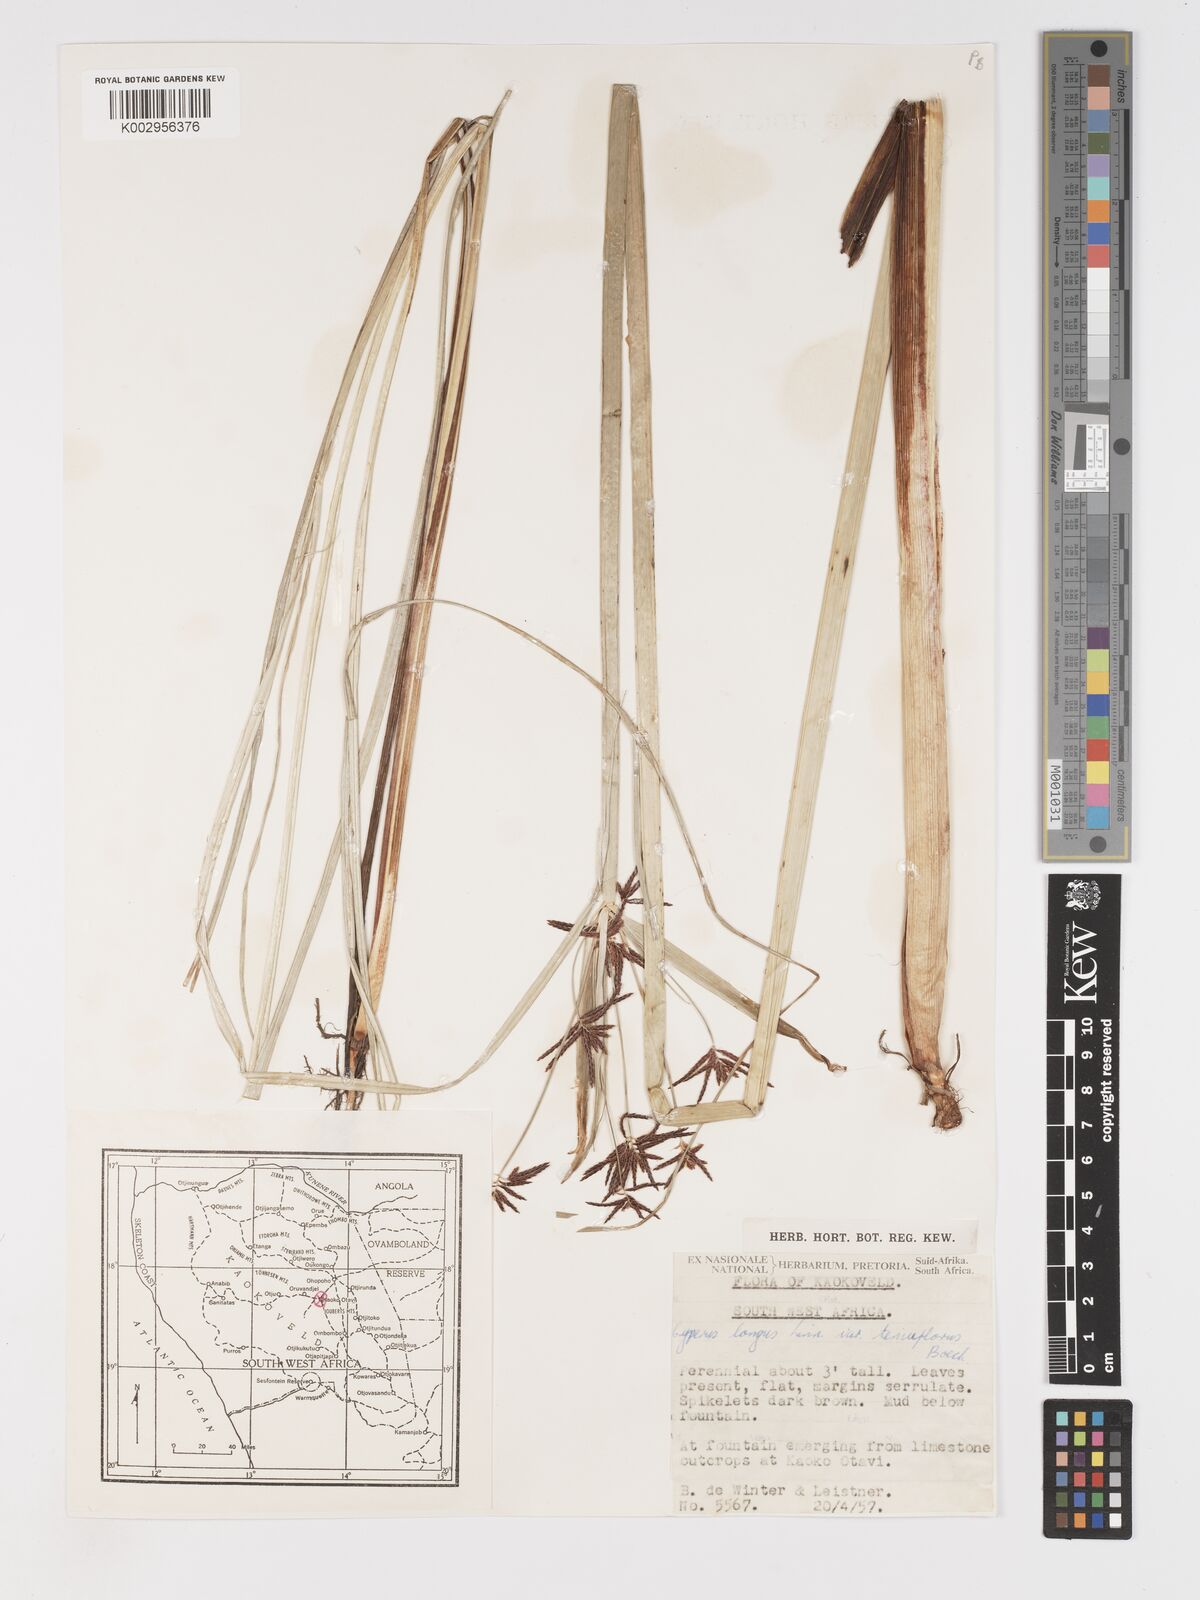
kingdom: Plantae
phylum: Tracheophyta
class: Liliopsida
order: Poales
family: Cyperaceae
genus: Cyperus
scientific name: Cyperus longus
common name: Galingale
